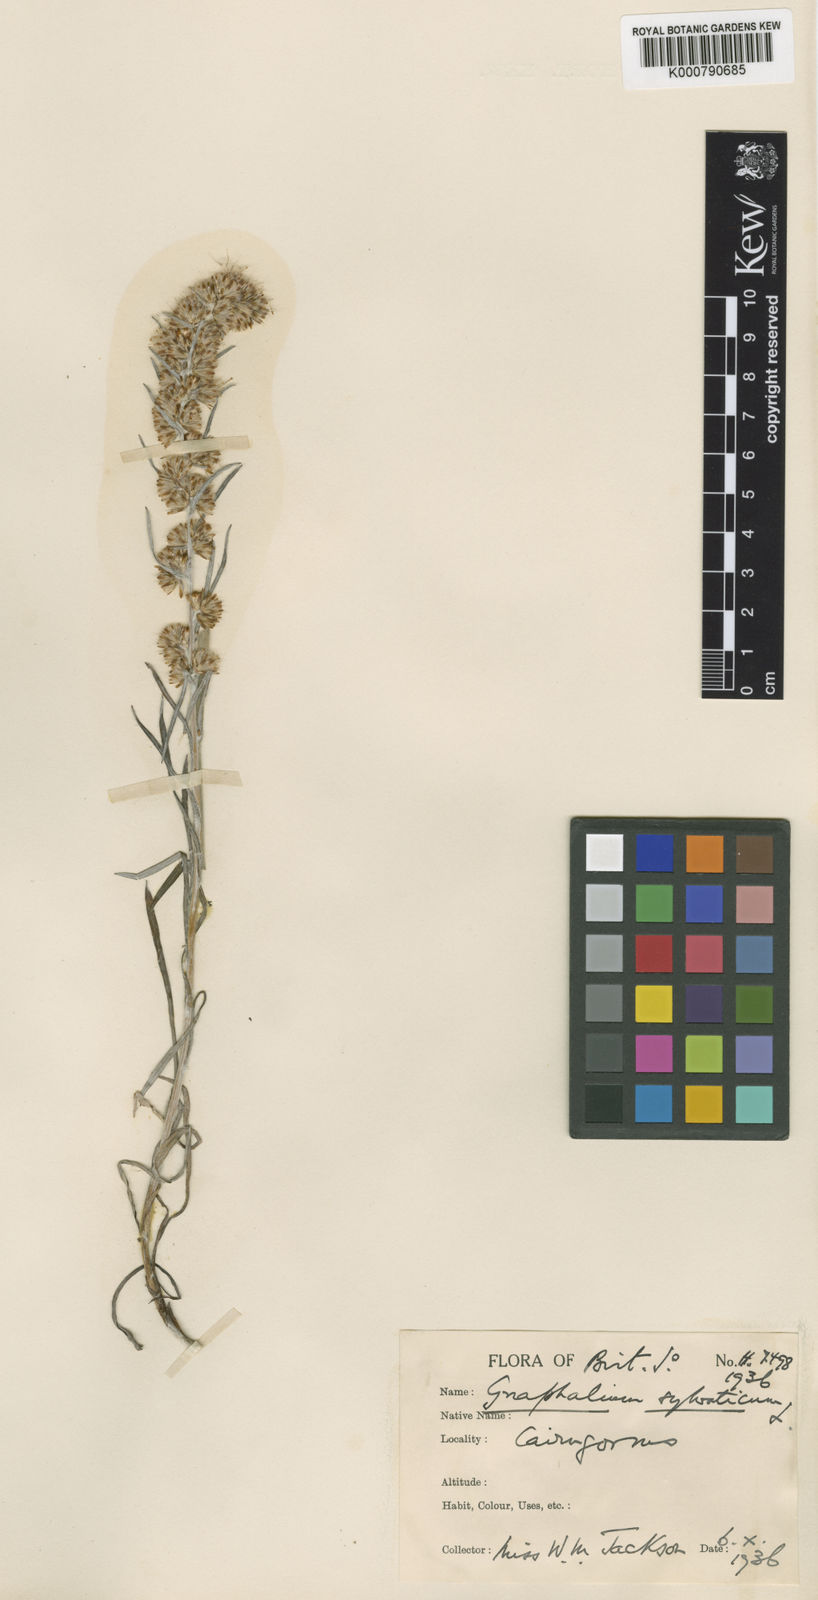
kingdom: Plantae
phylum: Tracheophyta
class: Magnoliopsida
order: Asterales
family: Asteraceae
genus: Omalotheca
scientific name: Omalotheca sylvatica
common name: Heath cudweed
